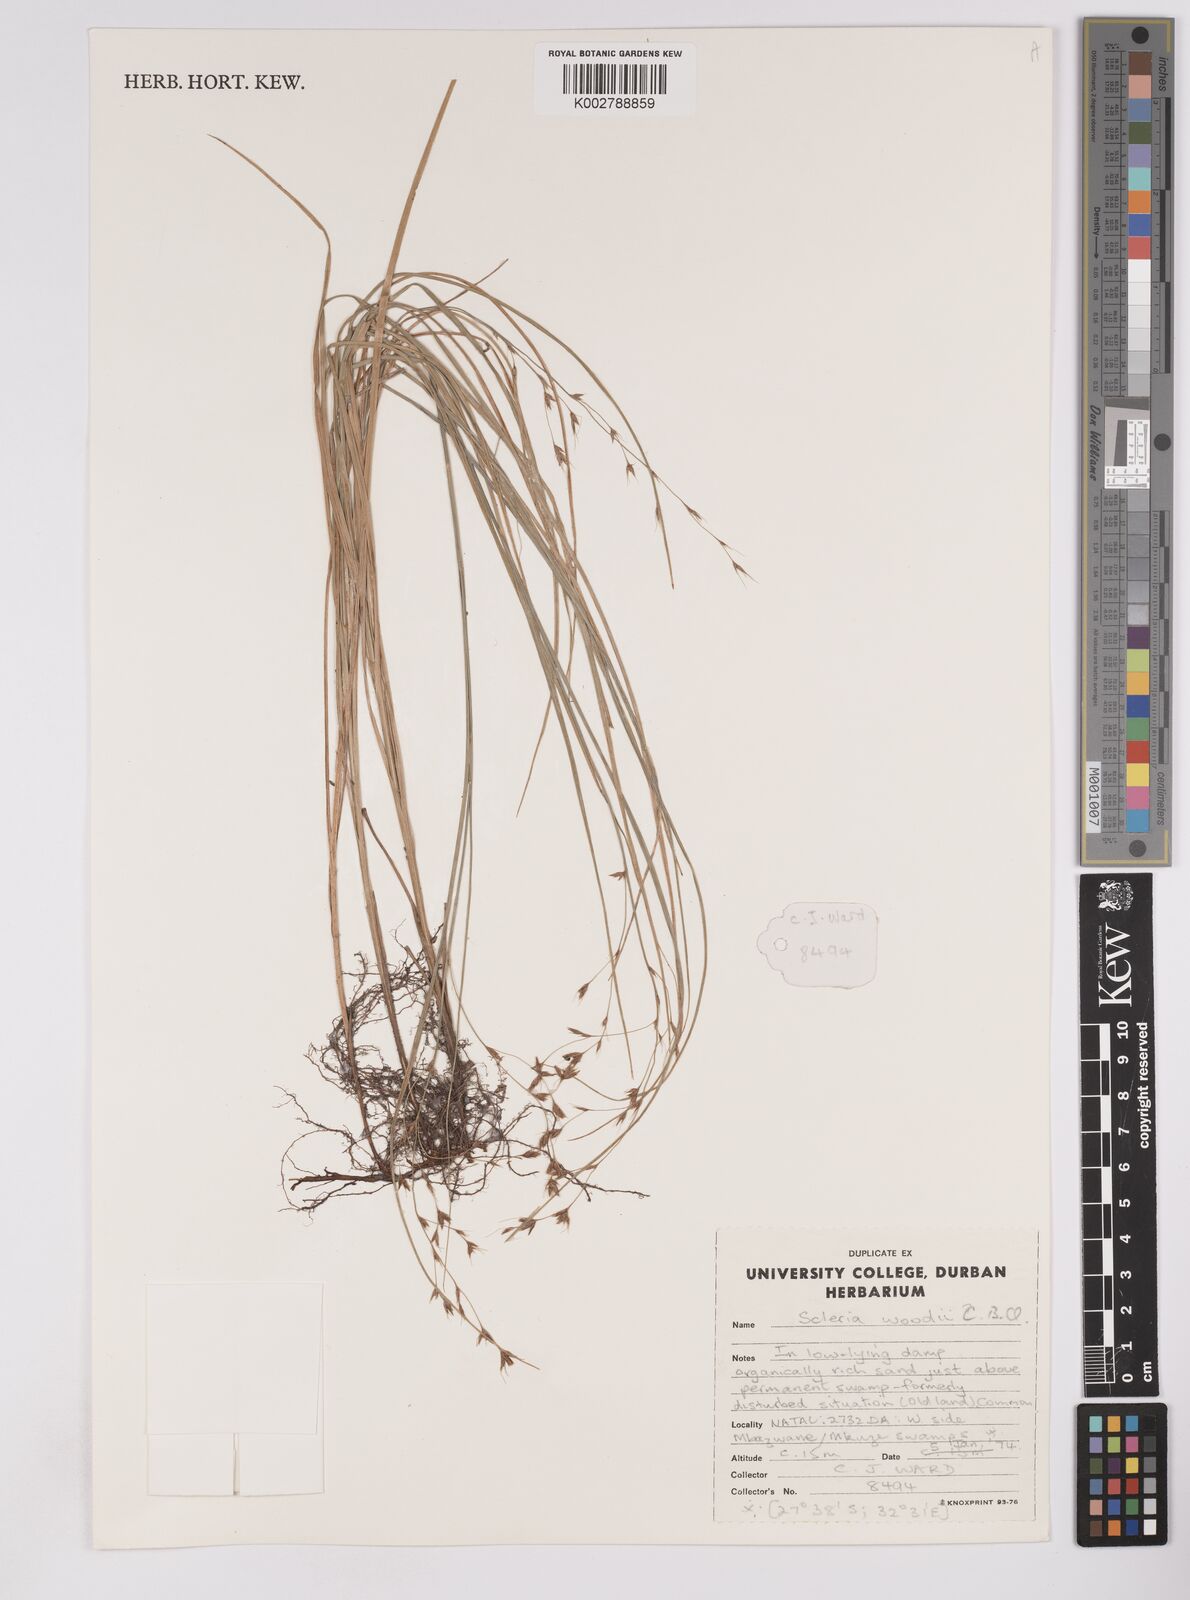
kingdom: Plantae
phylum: Tracheophyta
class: Liliopsida
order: Poales
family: Cyperaceae
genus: Scleria
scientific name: Scleria woodii
